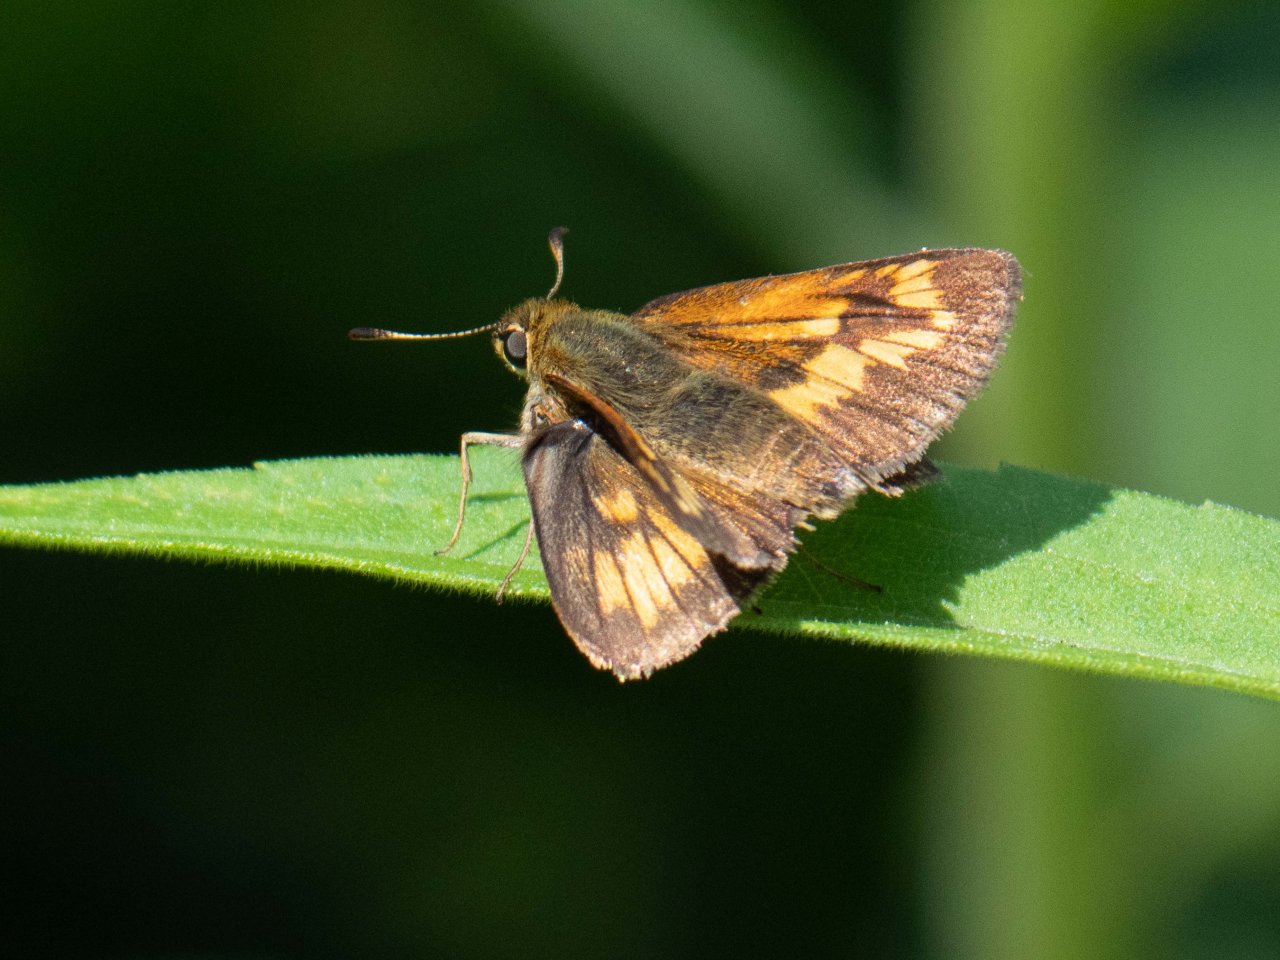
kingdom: Animalia
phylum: Arthropoda
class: Insecta
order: Lepidoptera
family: Hesperiidae
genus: Polites
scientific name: Polites
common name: Long Dash Skipper
